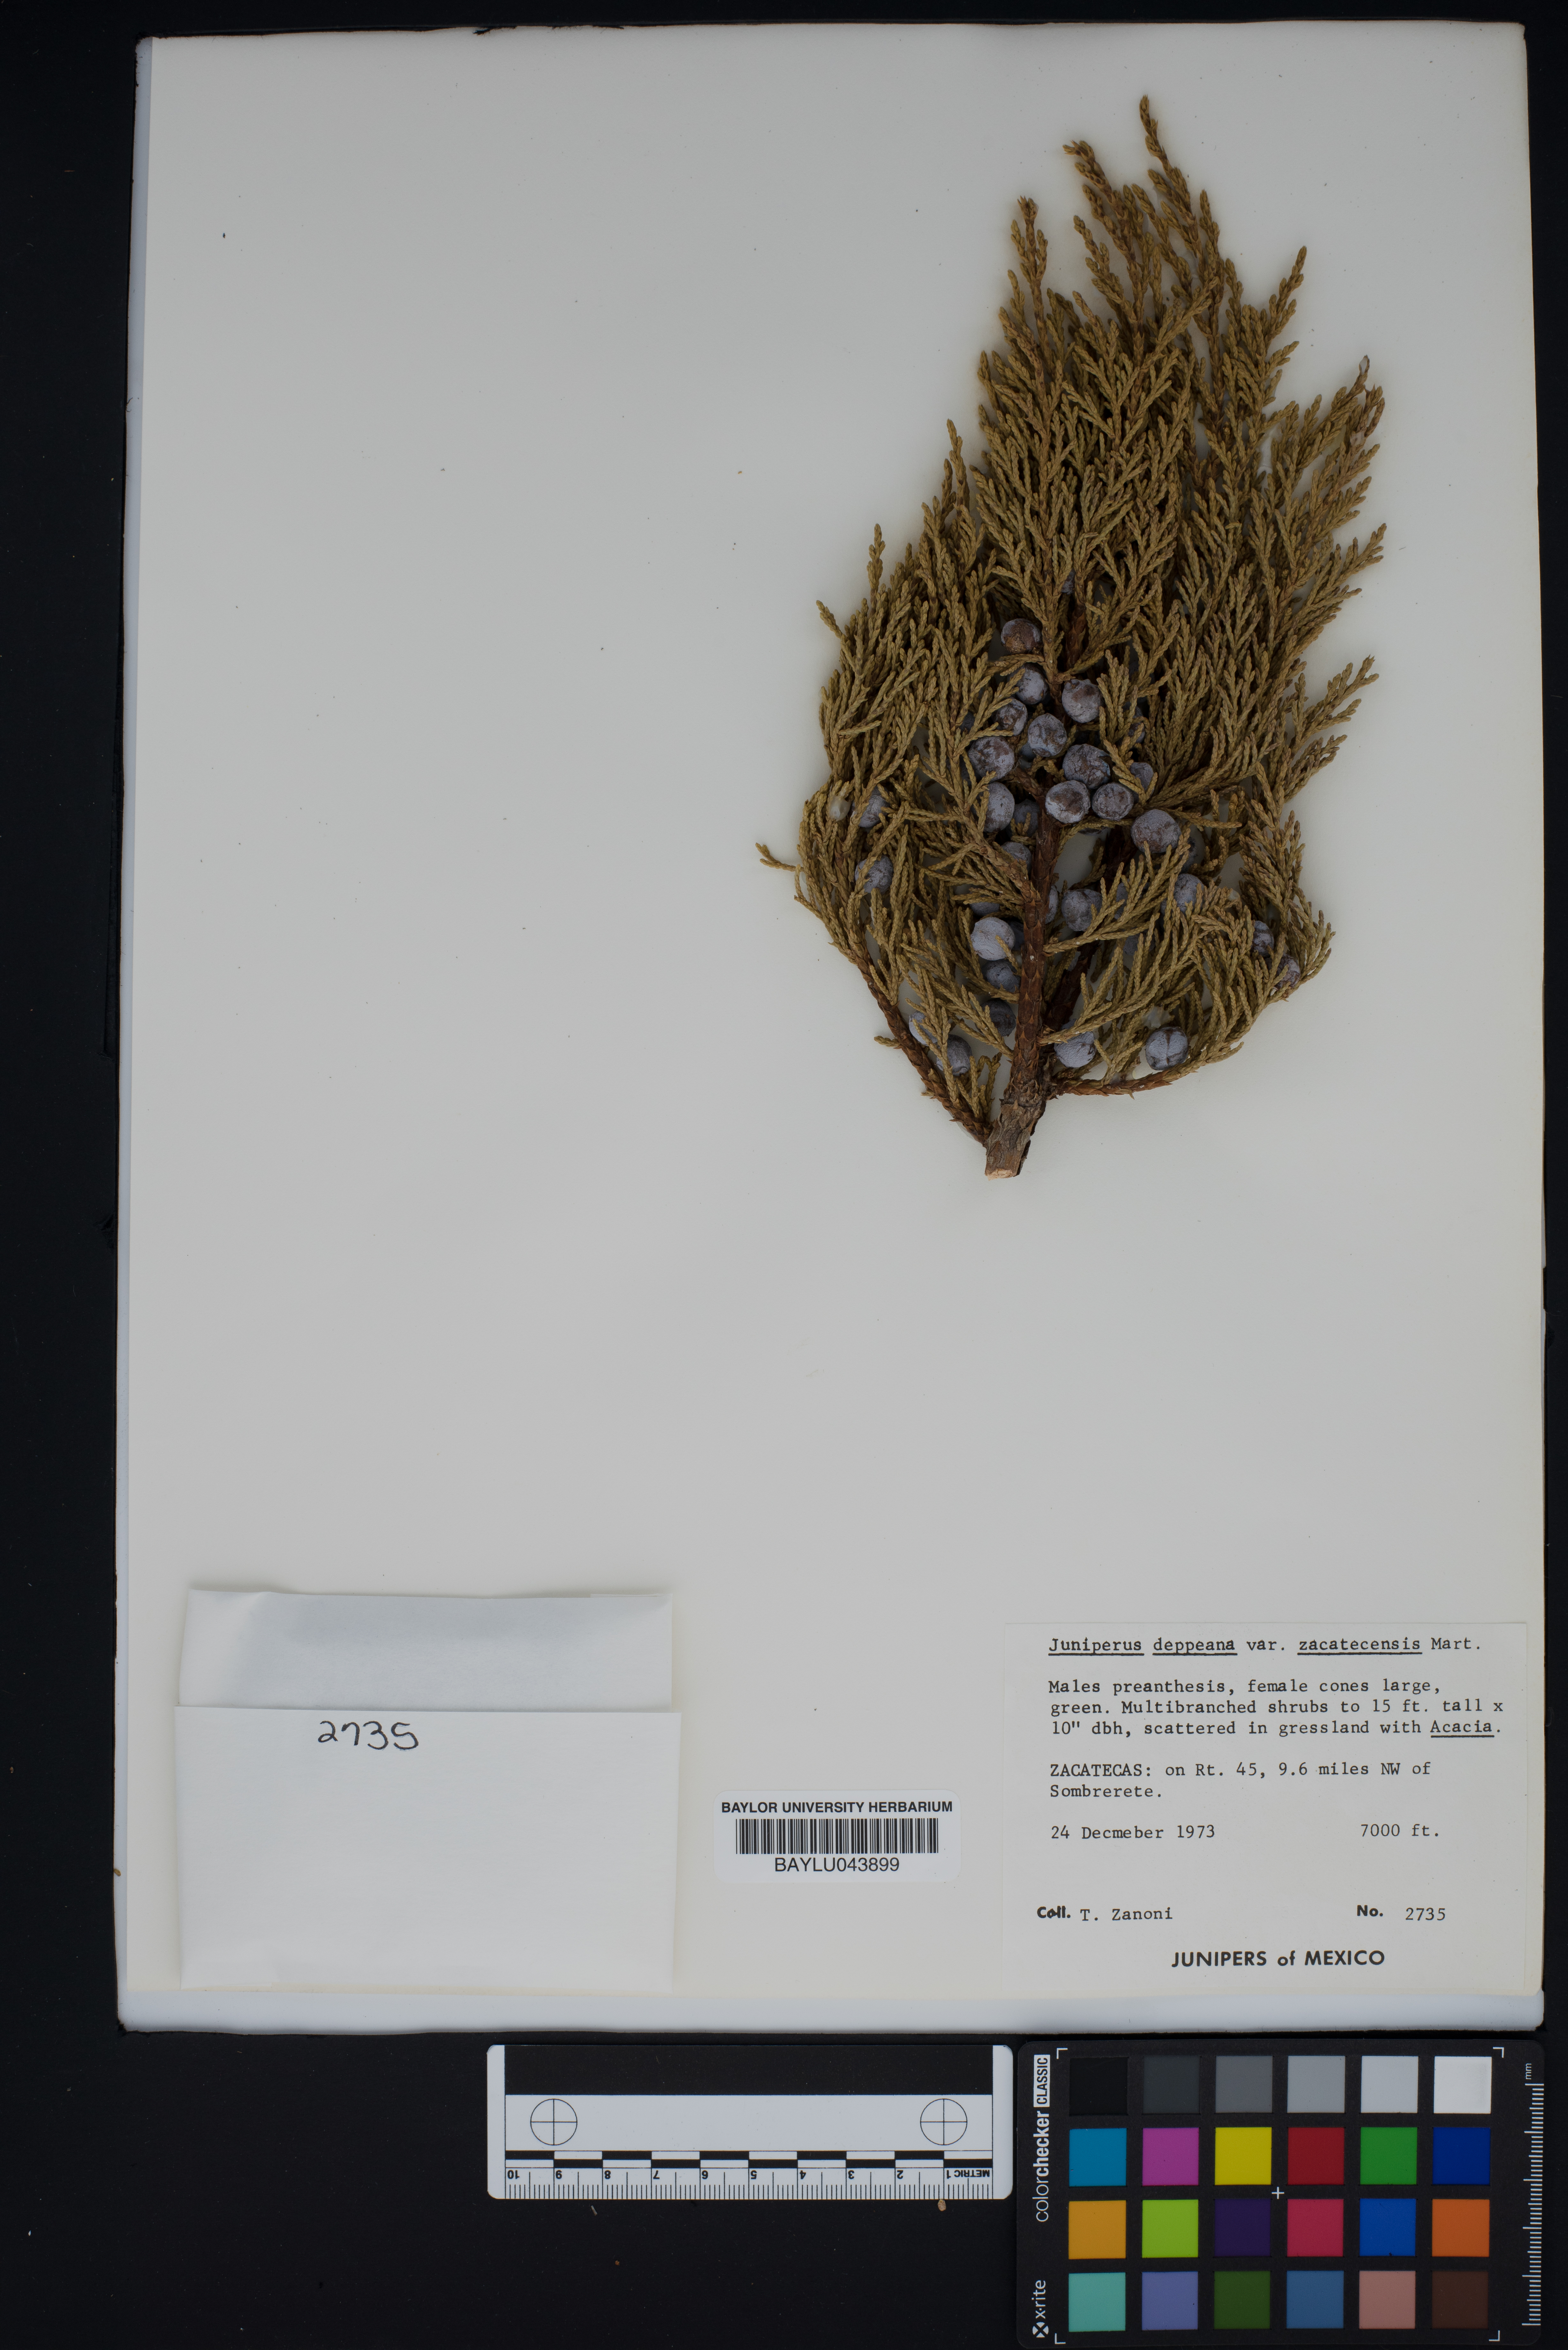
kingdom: Plantae
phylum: Tracheophyta
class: Pinopsida
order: Pinales
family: Cupressaceae
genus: Juniperus
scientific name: Juniperus deppeana
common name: Alligator juniper
